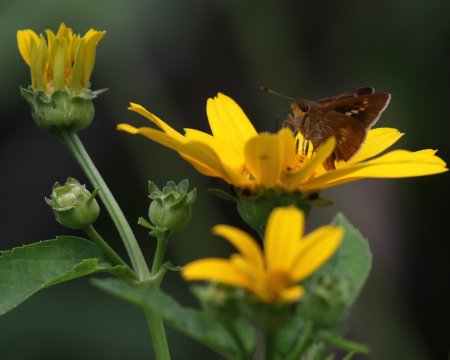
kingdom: Animalia
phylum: Arthropoda
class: Insecta
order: Lepidoptera
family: Hesperiidae
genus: Polites
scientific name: Polites egeremet
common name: Northern Broken-Dash
